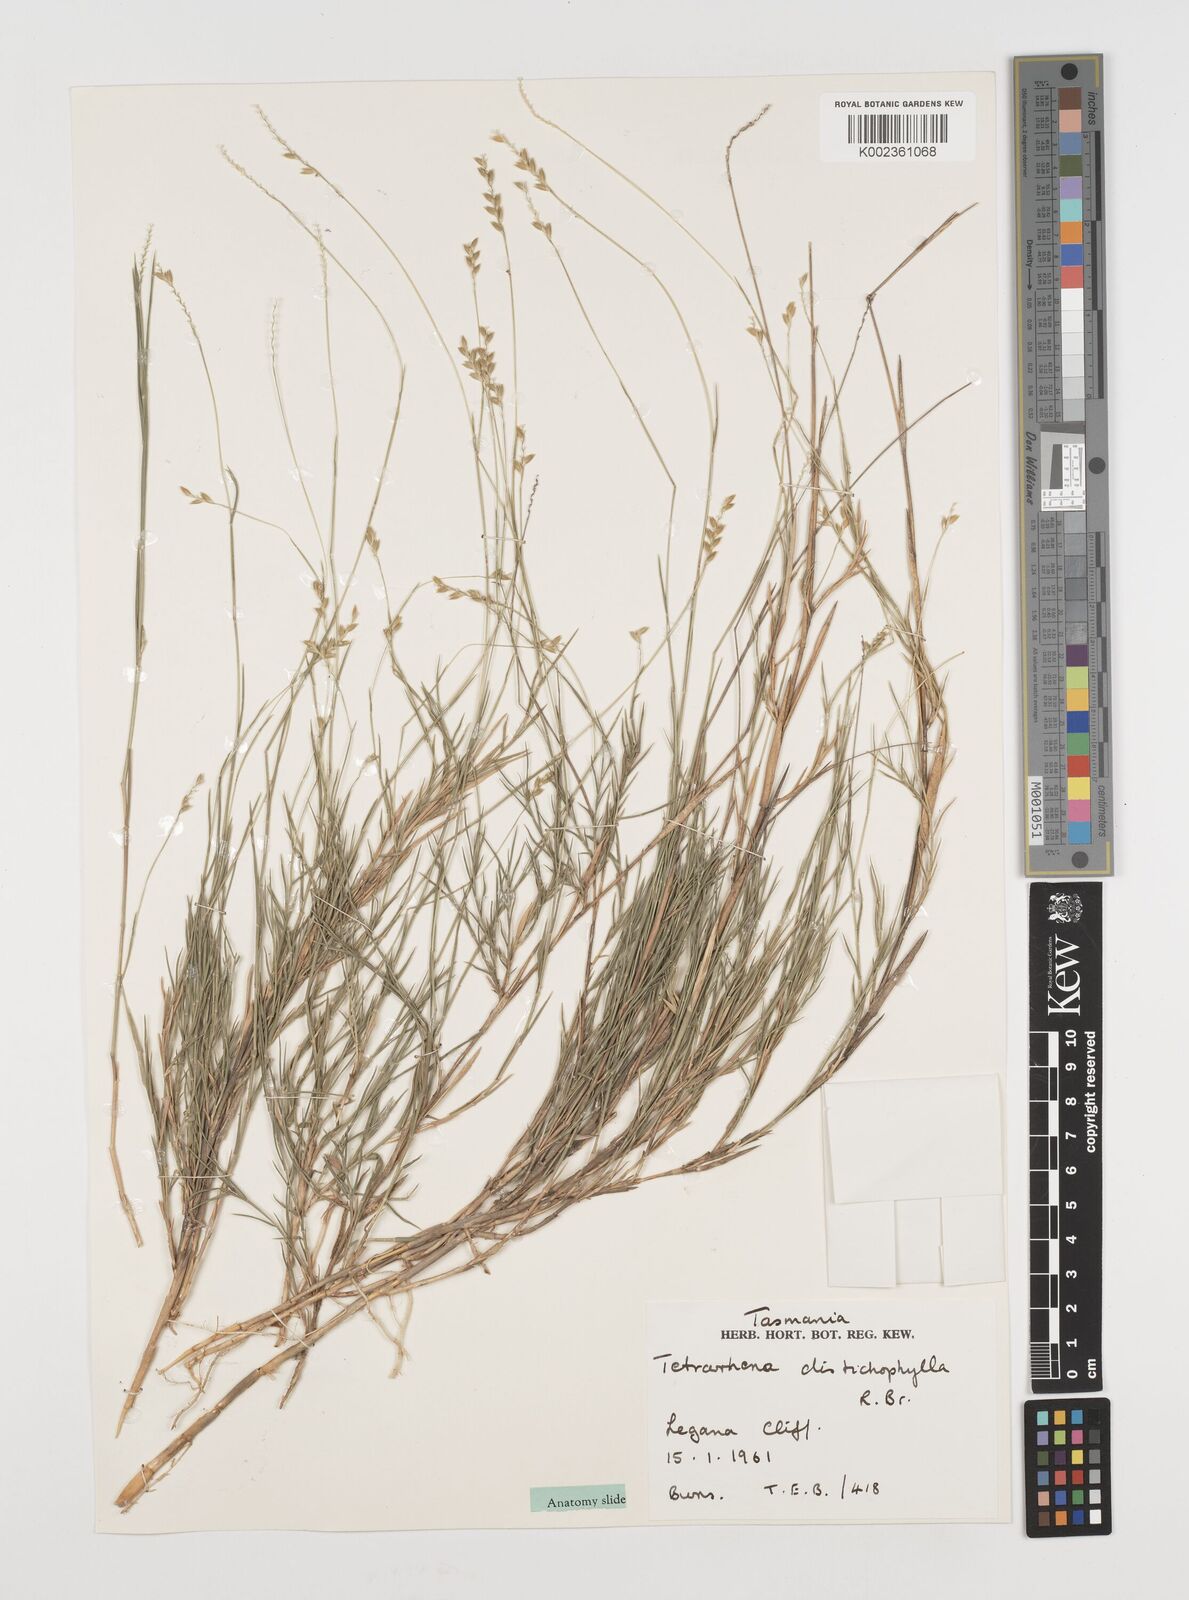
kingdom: Plantae
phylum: Tracheophyta
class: Liliopsida
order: Poales
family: Poaceae
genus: Tetrarrhena
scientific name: Tetrarrhena distichophylla
